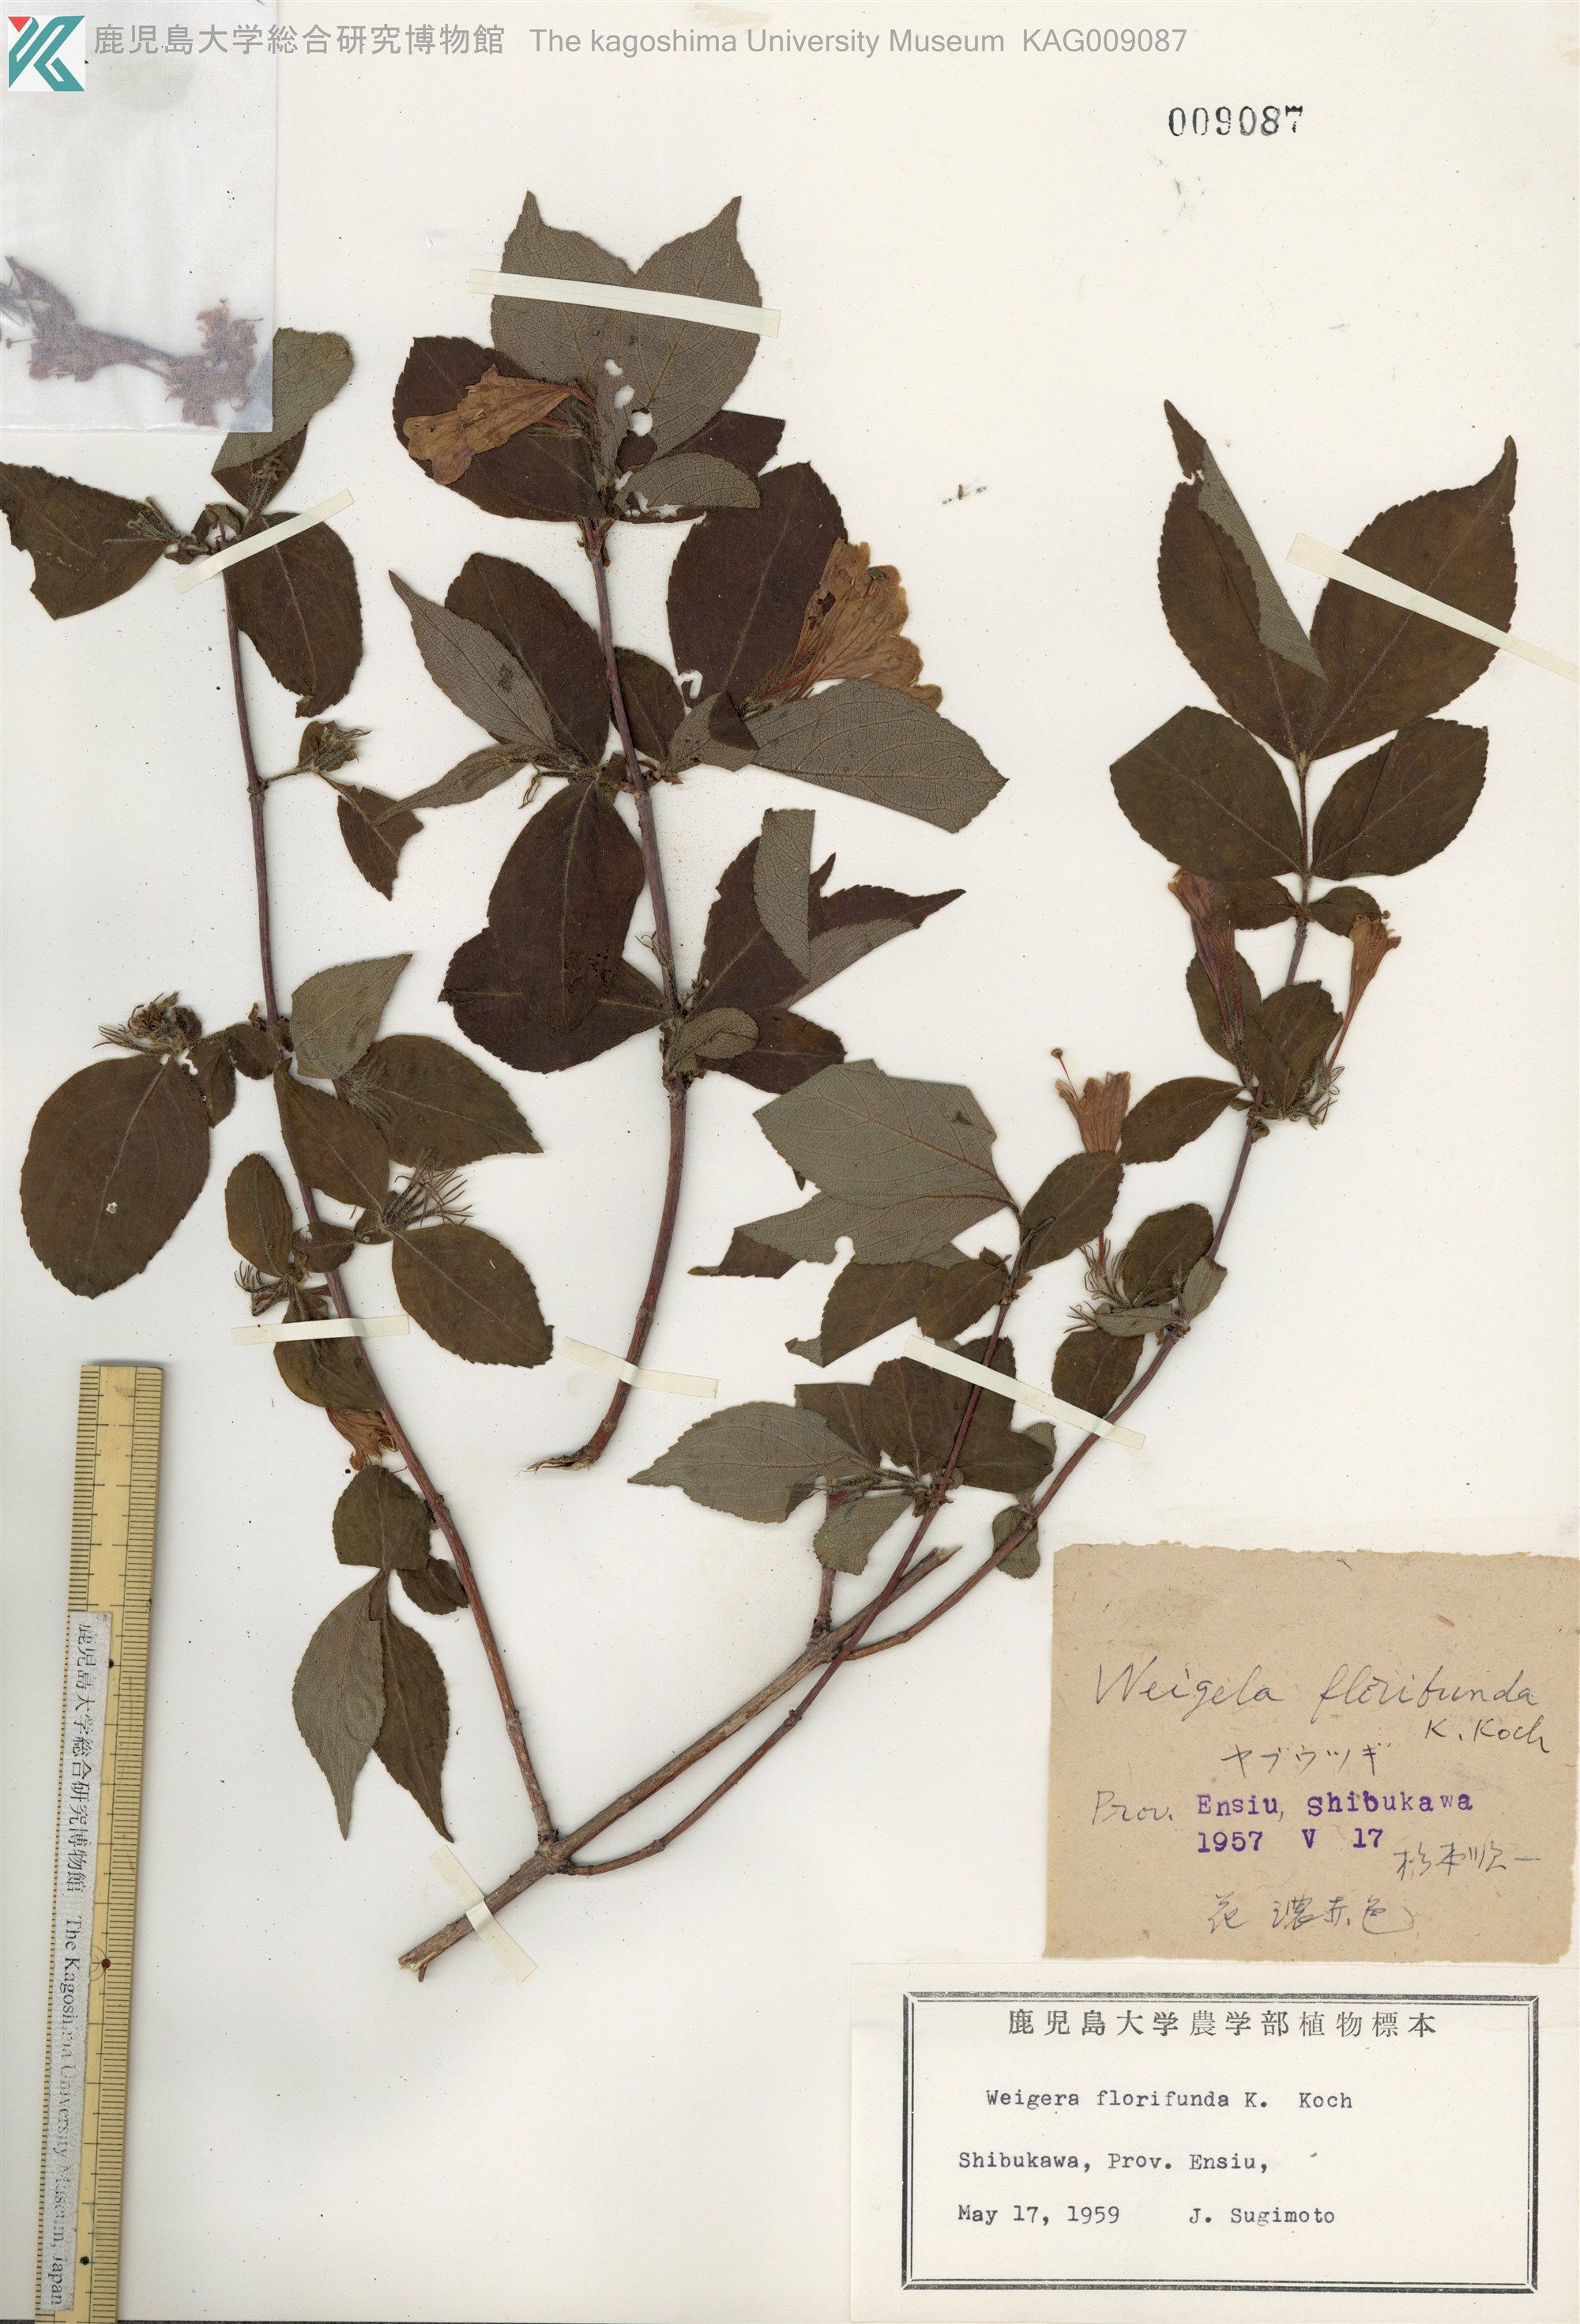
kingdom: Plantae
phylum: Tracheophyta
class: Magnoliopsida
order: Dipsacales
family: Caprifoliaceae
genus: Weigela
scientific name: Weigela floribunda
